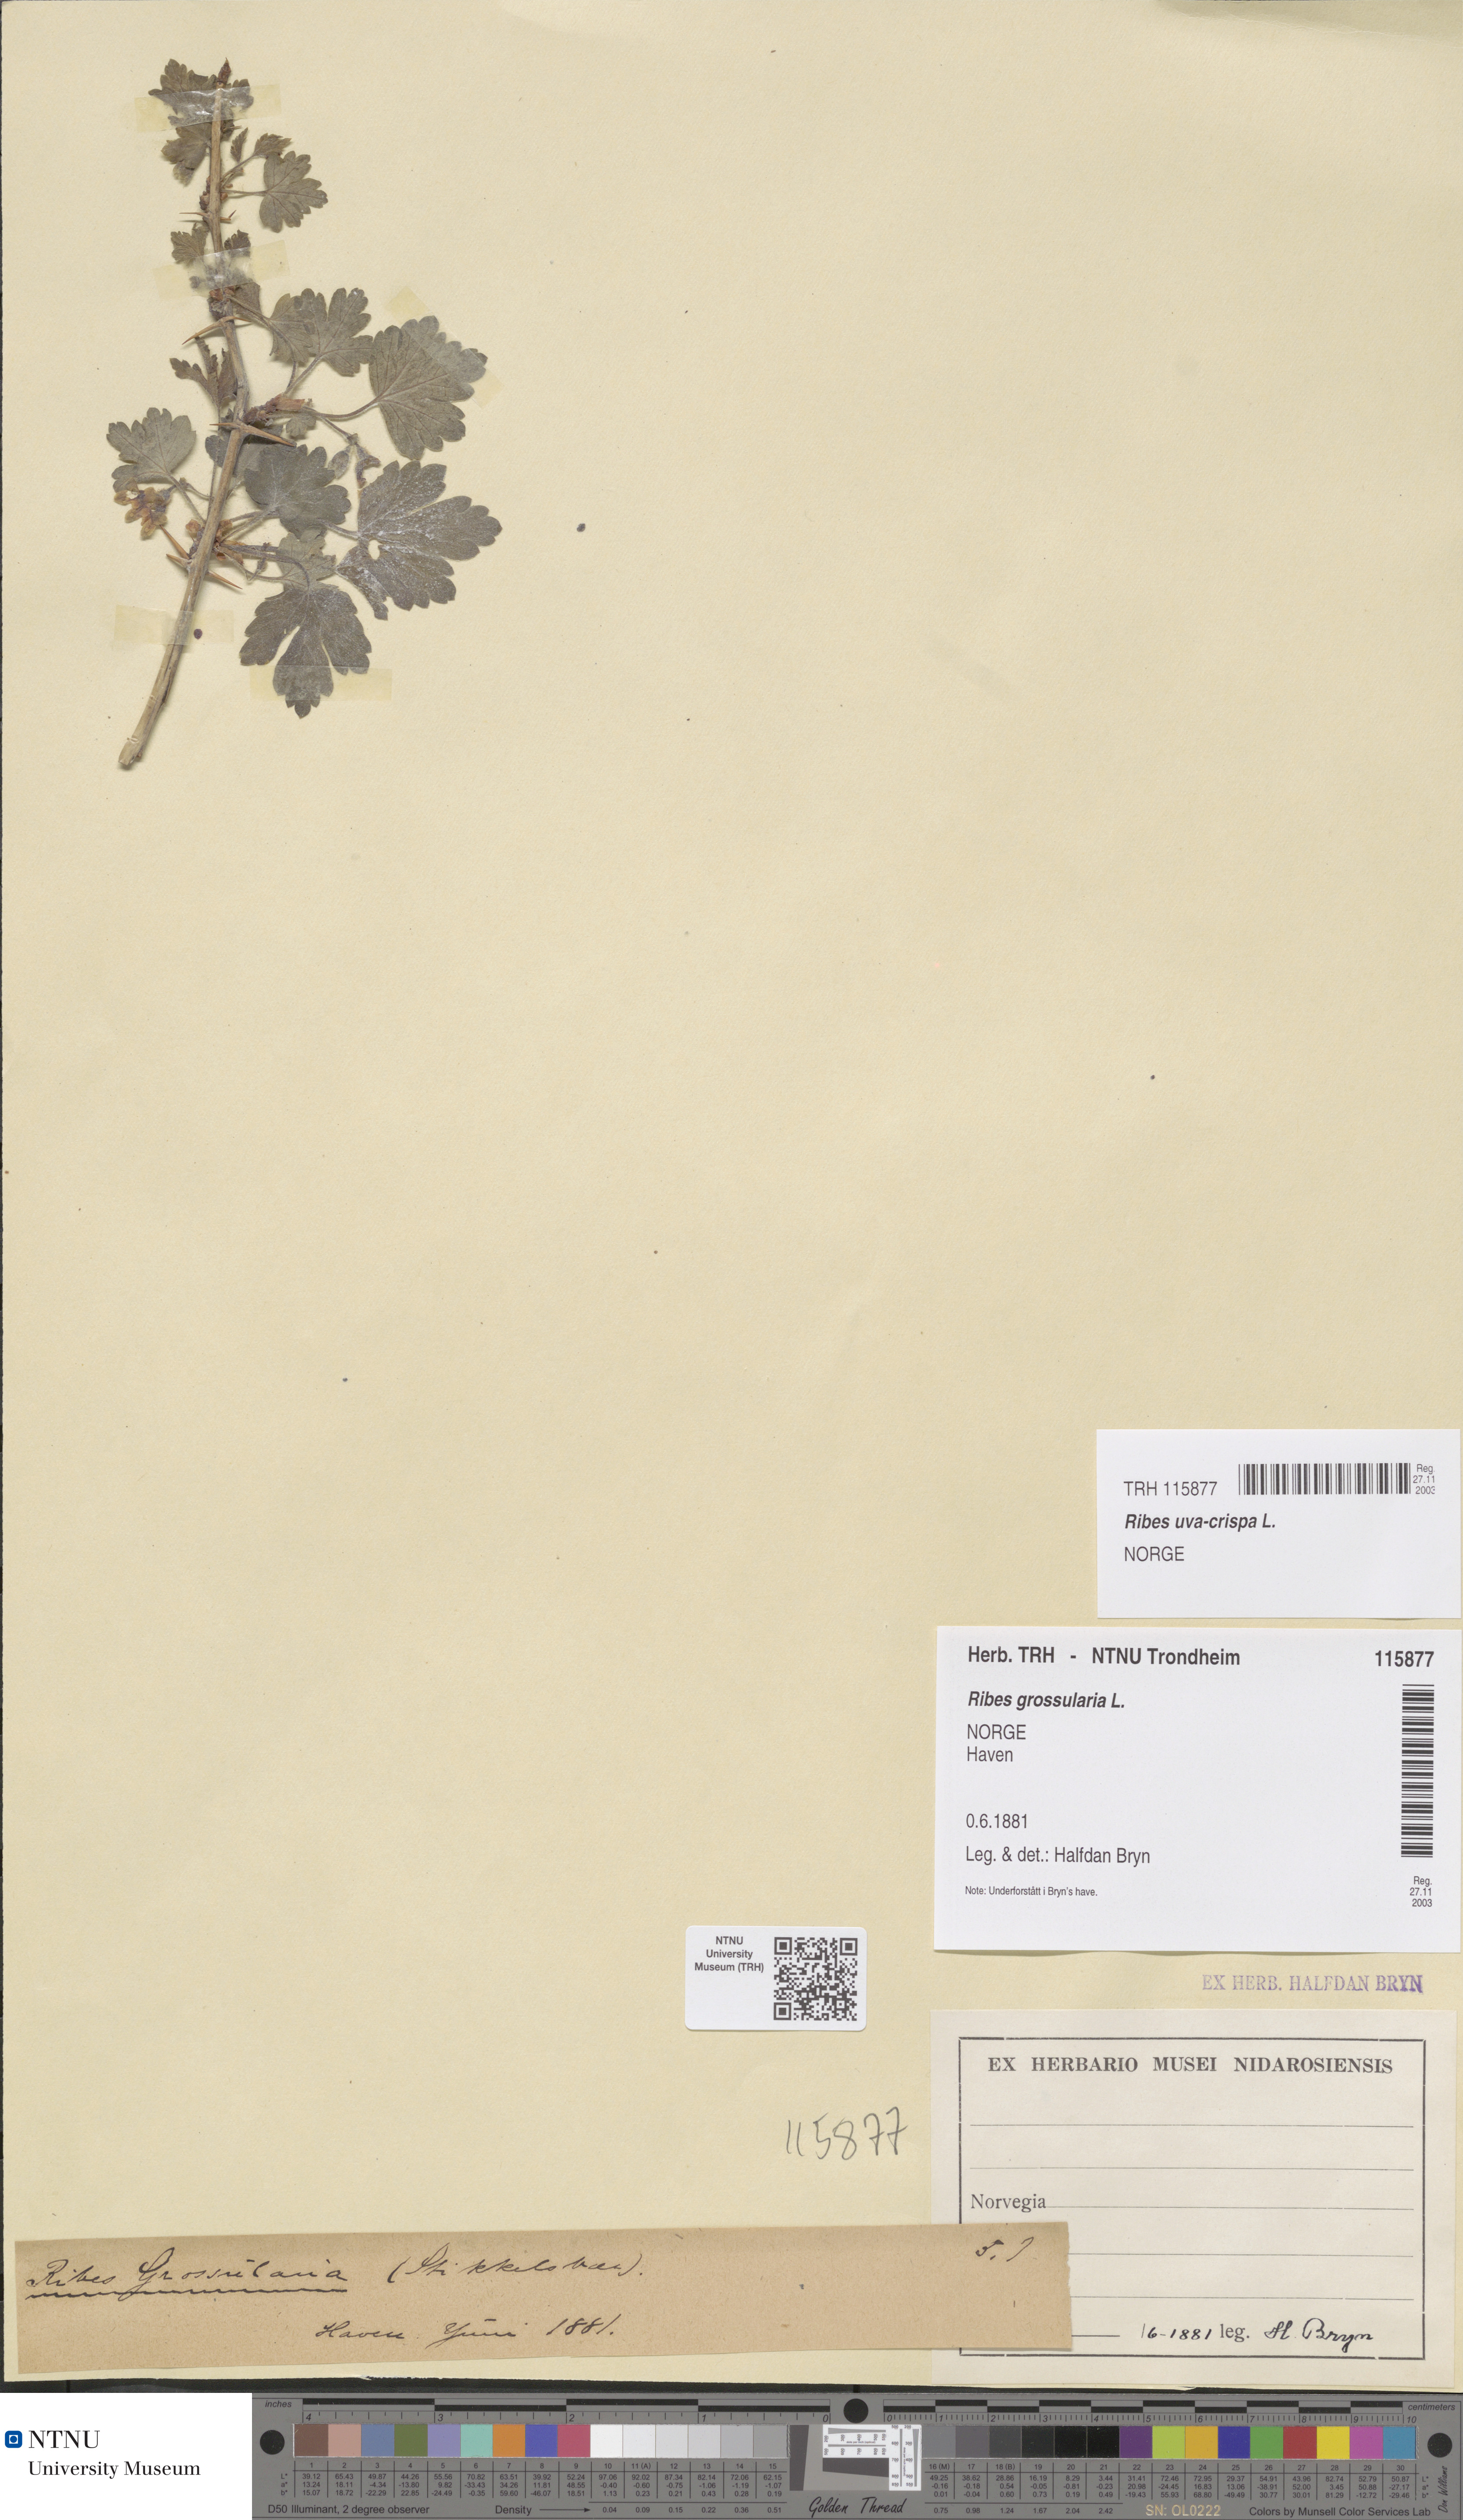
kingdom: Plantae
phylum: Tracheophyta
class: Magnoliopsida
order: Saxifragales
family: Grossulariaceae
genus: Ribes
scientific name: Ribes uva-crispa
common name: Gooseberry
